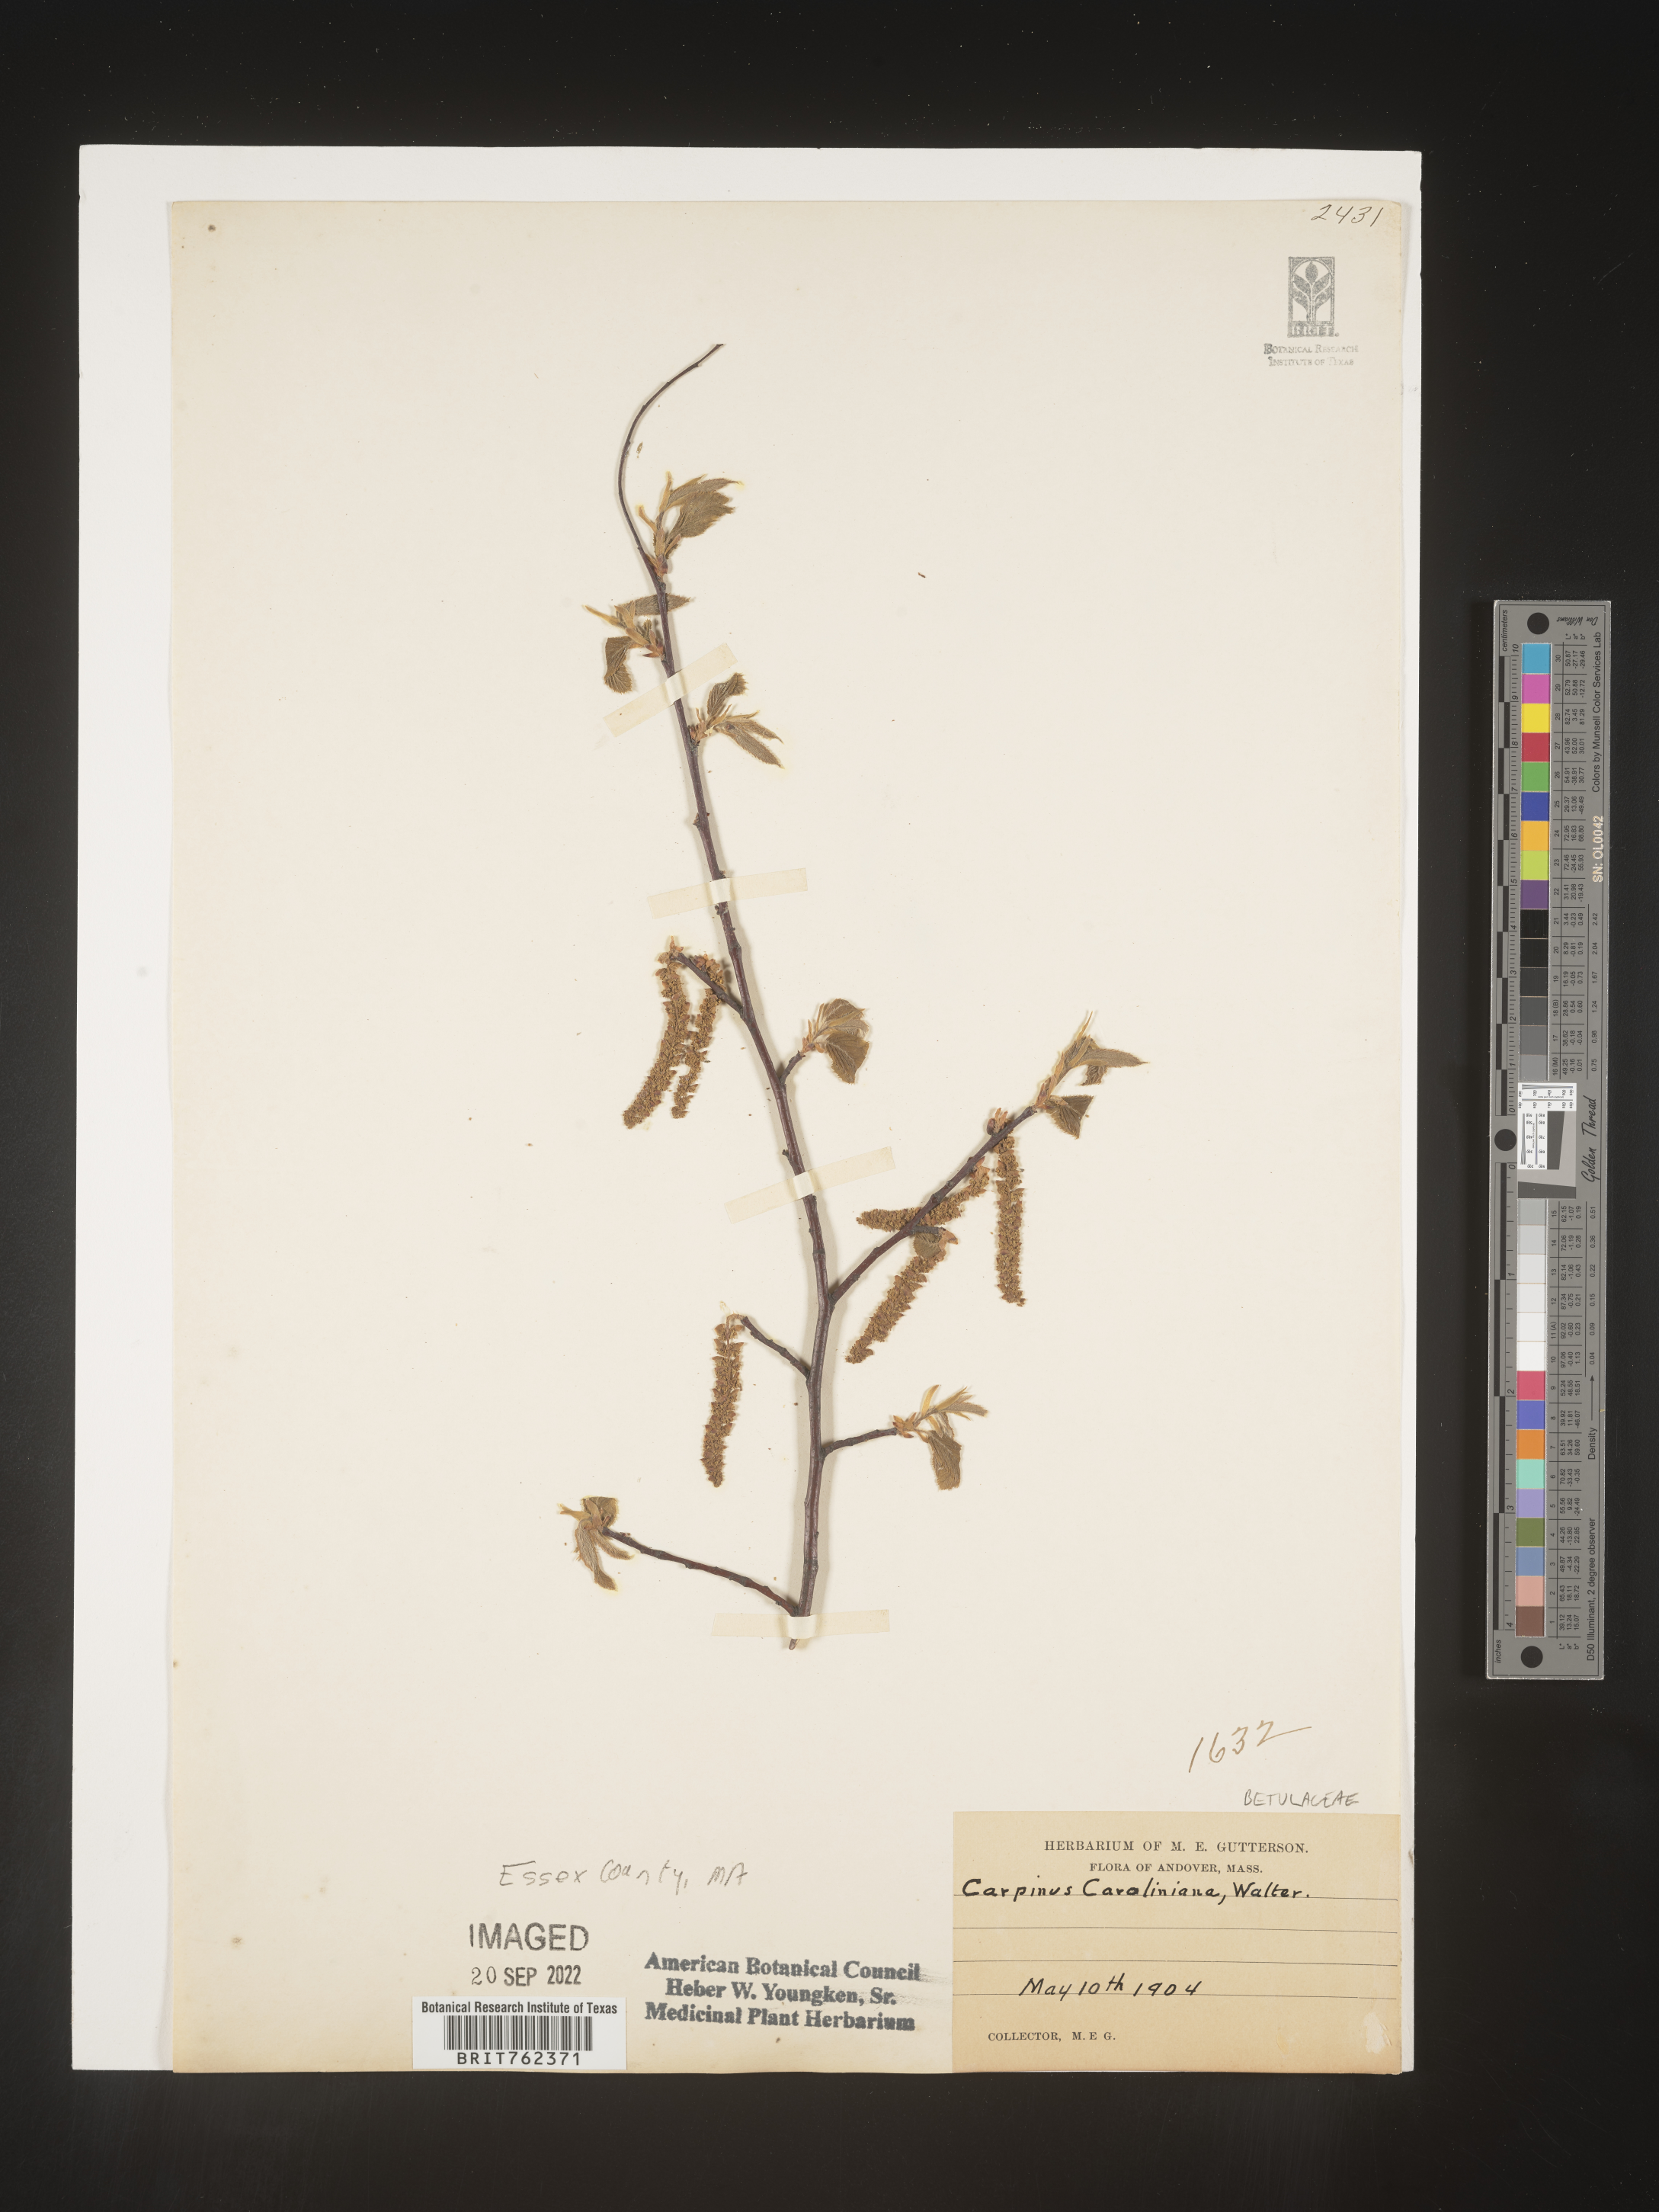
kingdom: Plantae
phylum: Tracheophyta
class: Magnoliopsida
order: Fagales
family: Betulaceae
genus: Carpinus
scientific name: Carpinus caroliniana
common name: American hornbeam
